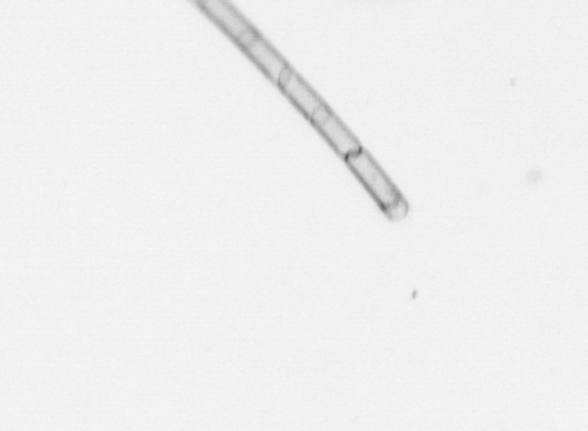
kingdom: Chromista
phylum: Ochrophyta
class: Bacillariophyceae
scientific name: Bacillariophyceae
